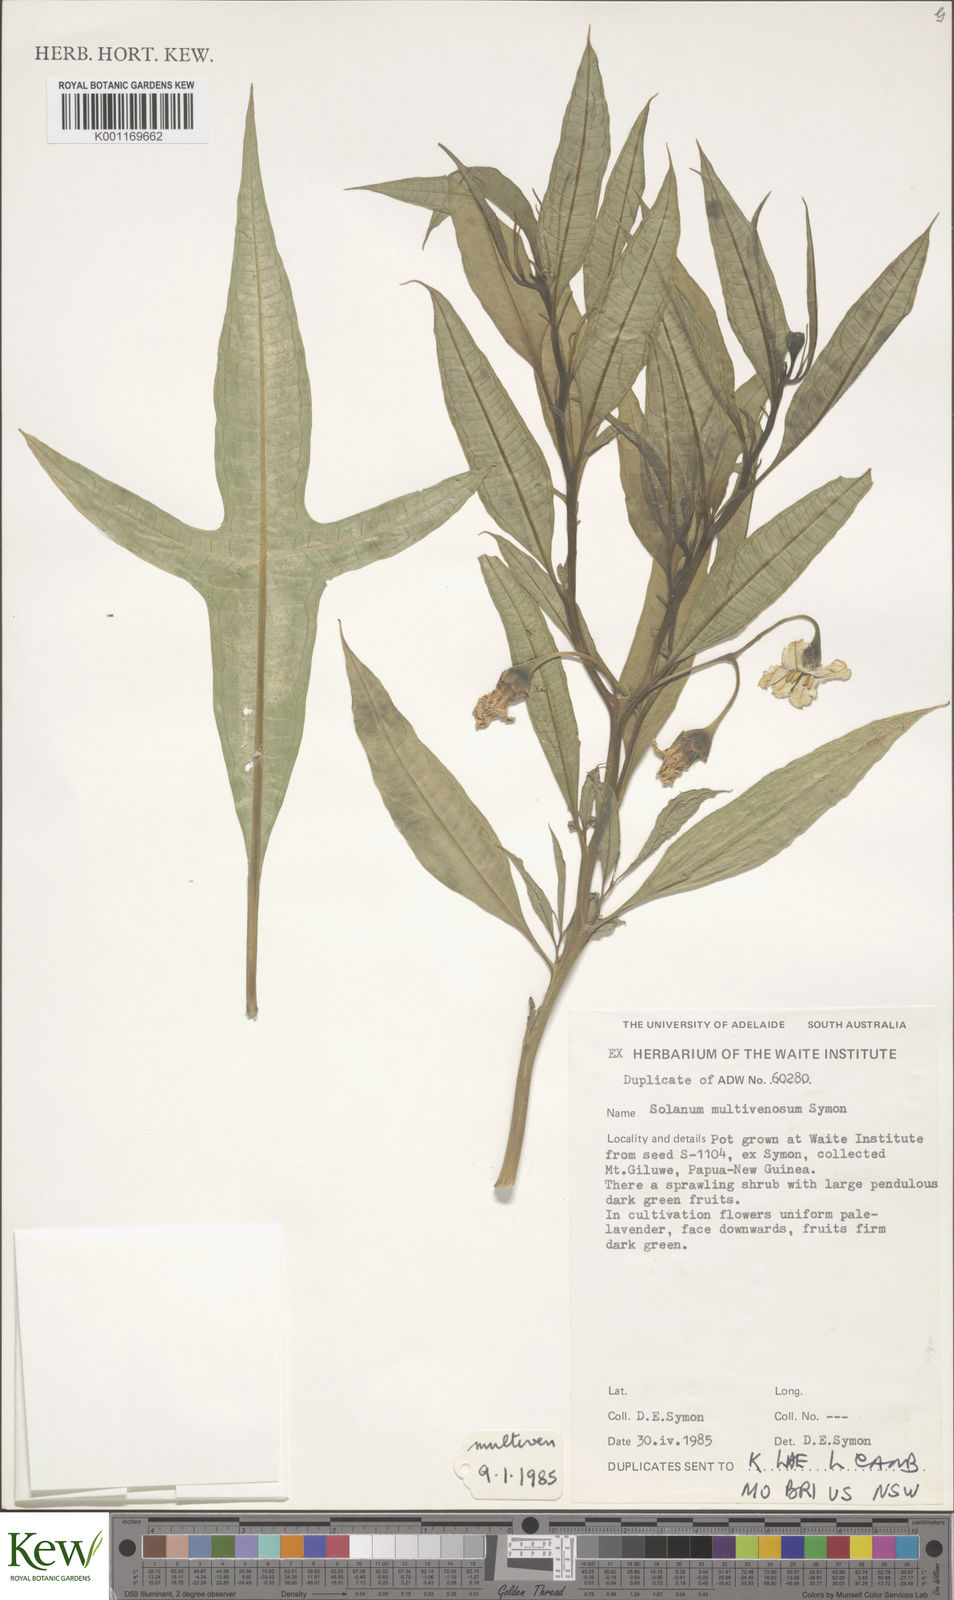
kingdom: Plantae
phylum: Tracheophyta
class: Magnoliopsida
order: Solanales
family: Solanaceae
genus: Solanum
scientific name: Solanum multivenosum
